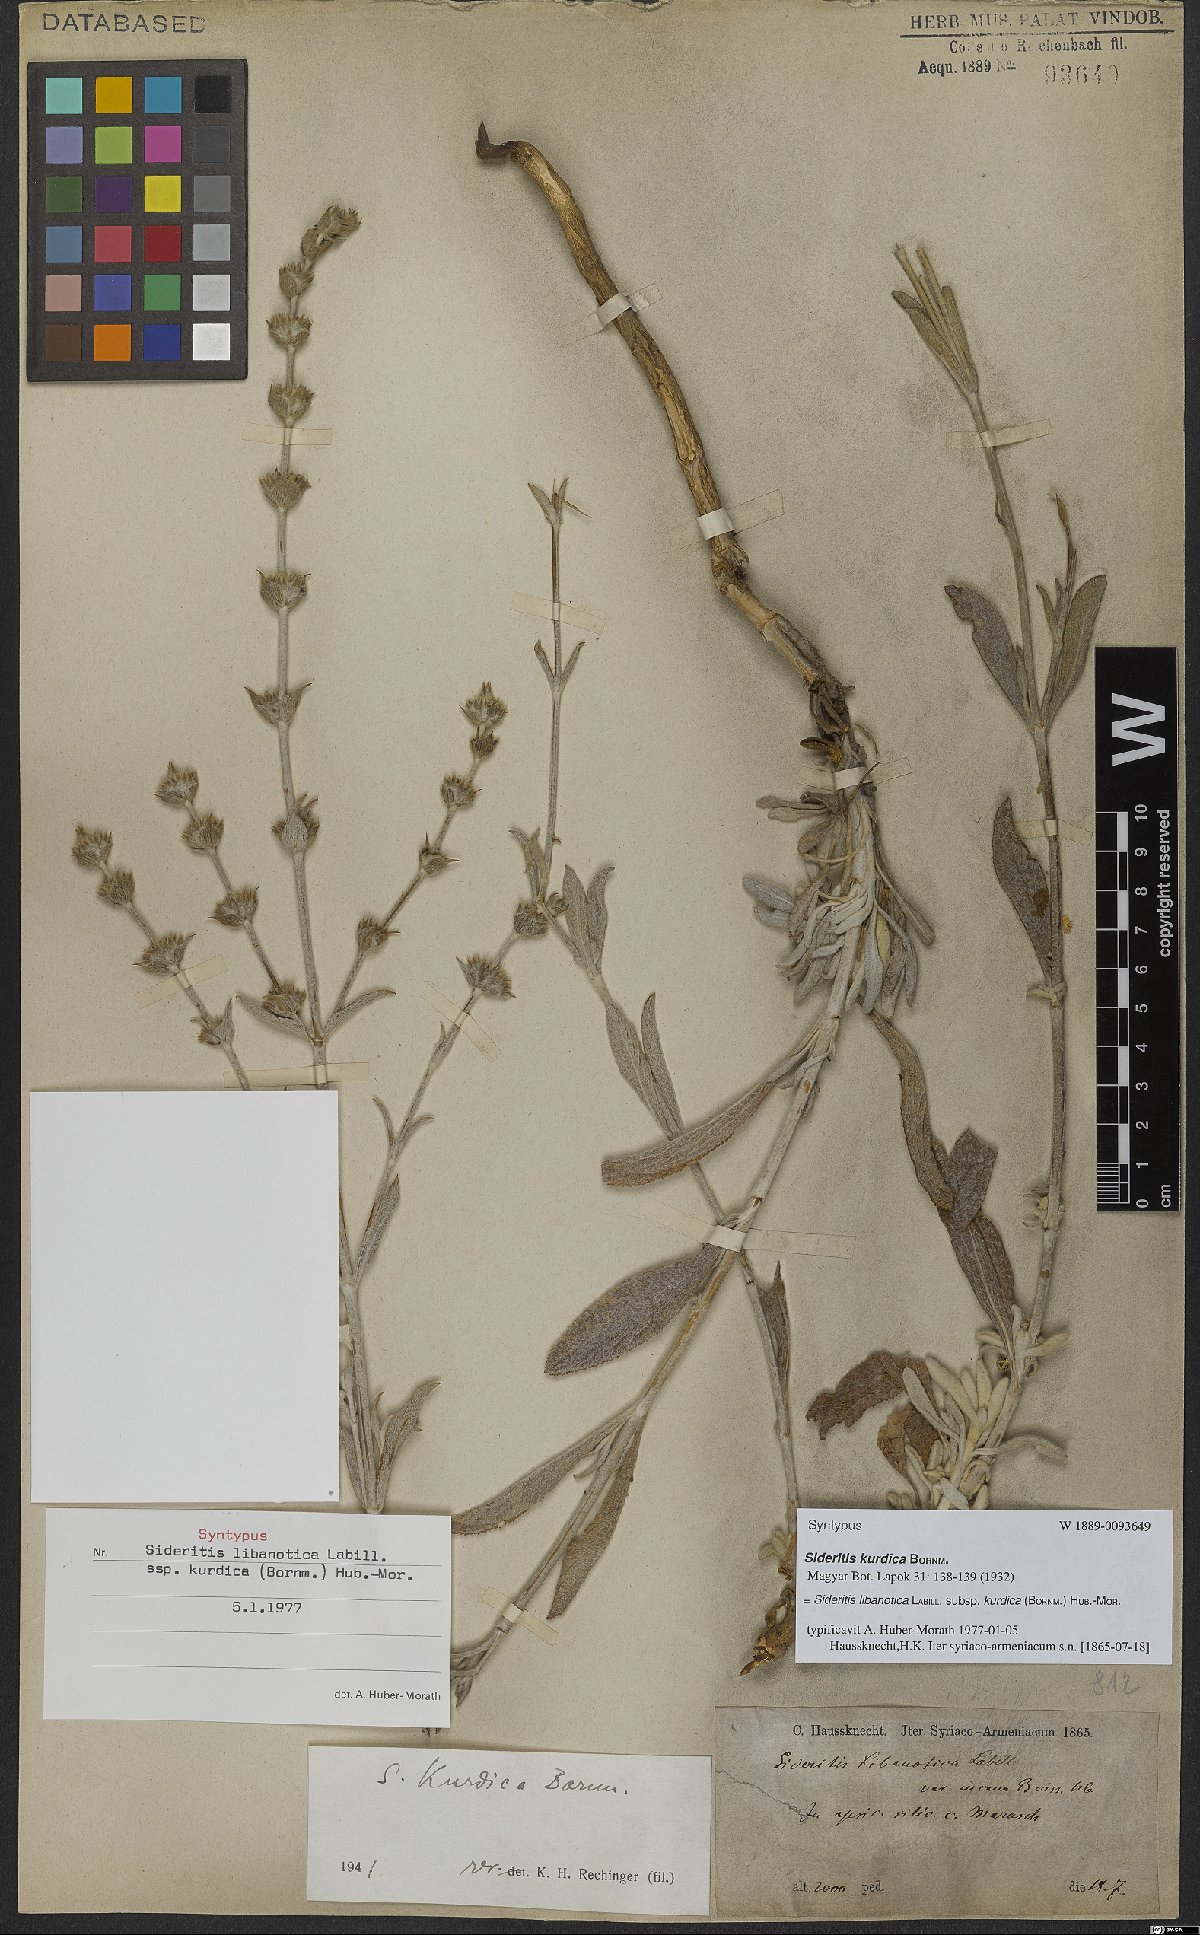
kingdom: Plantae
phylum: Tracheophyta
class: Magnoliopsida
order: Lamiales
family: Lamiaceae
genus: Sideritis
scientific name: Sideritis libanotica
